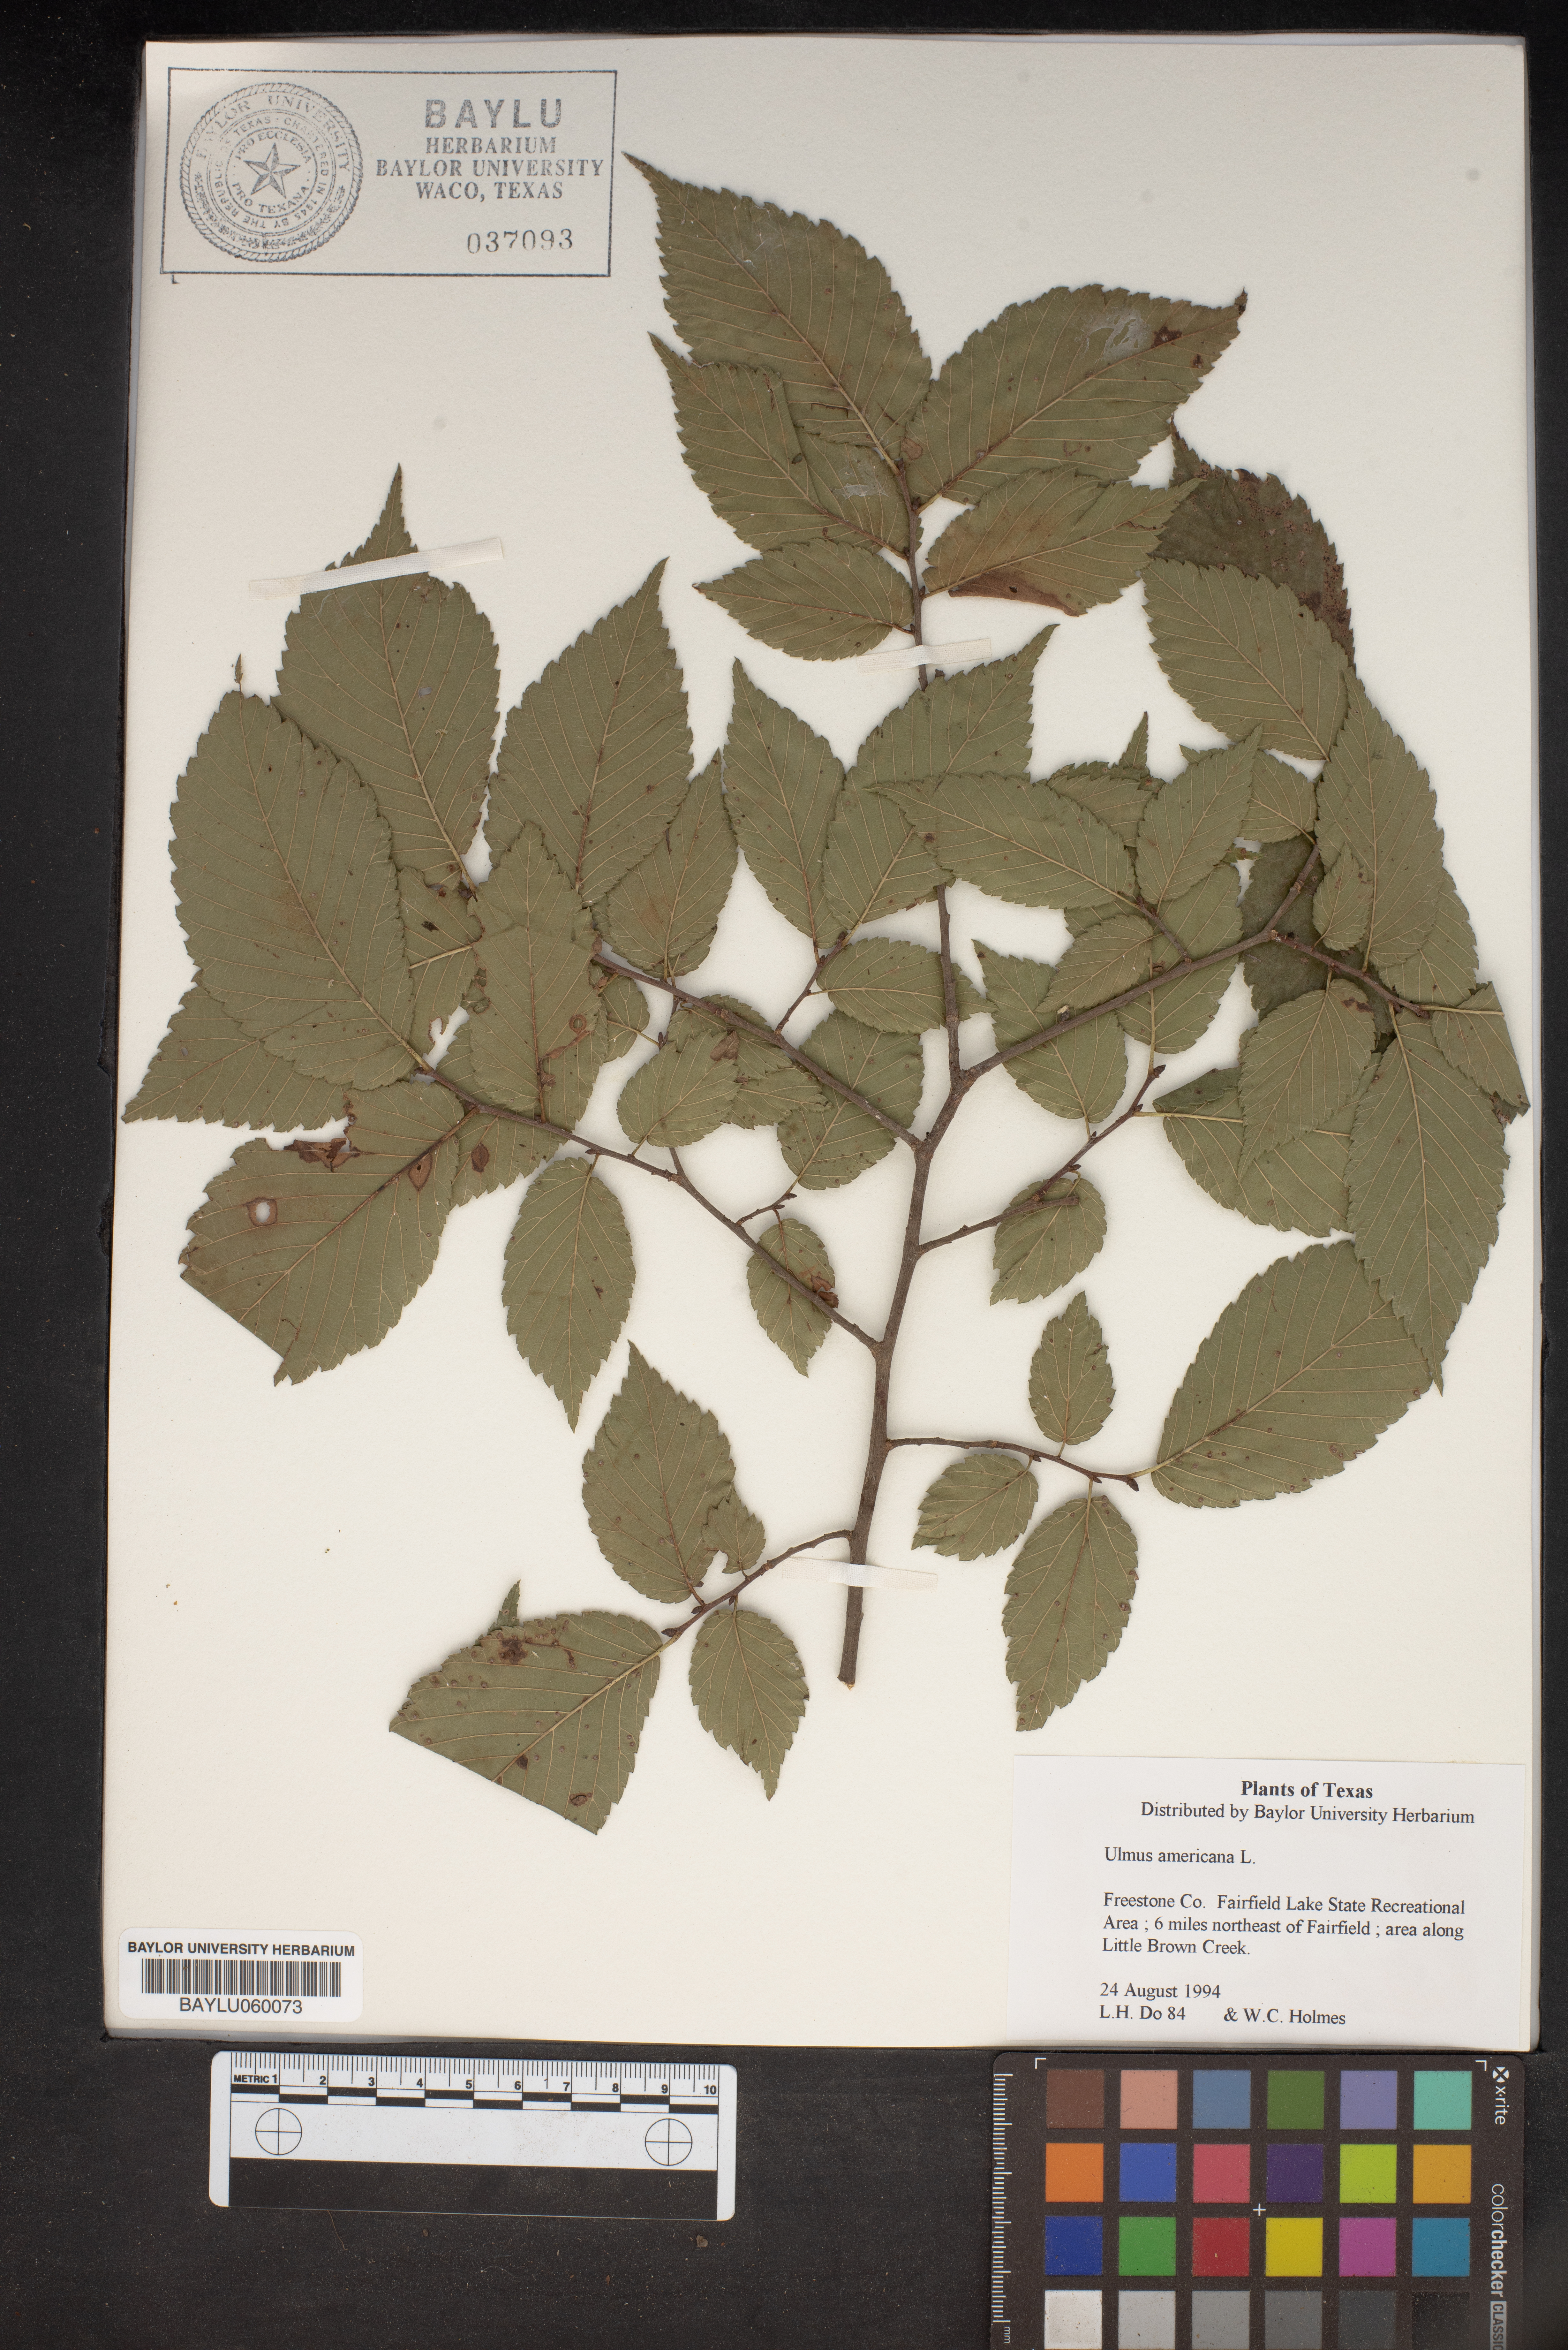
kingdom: Plantae
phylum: Tracheophyta
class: Magnoliopsida
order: Rosales
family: Ulmaceae
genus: Ulmus
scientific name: Ulmus americana
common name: American elm
